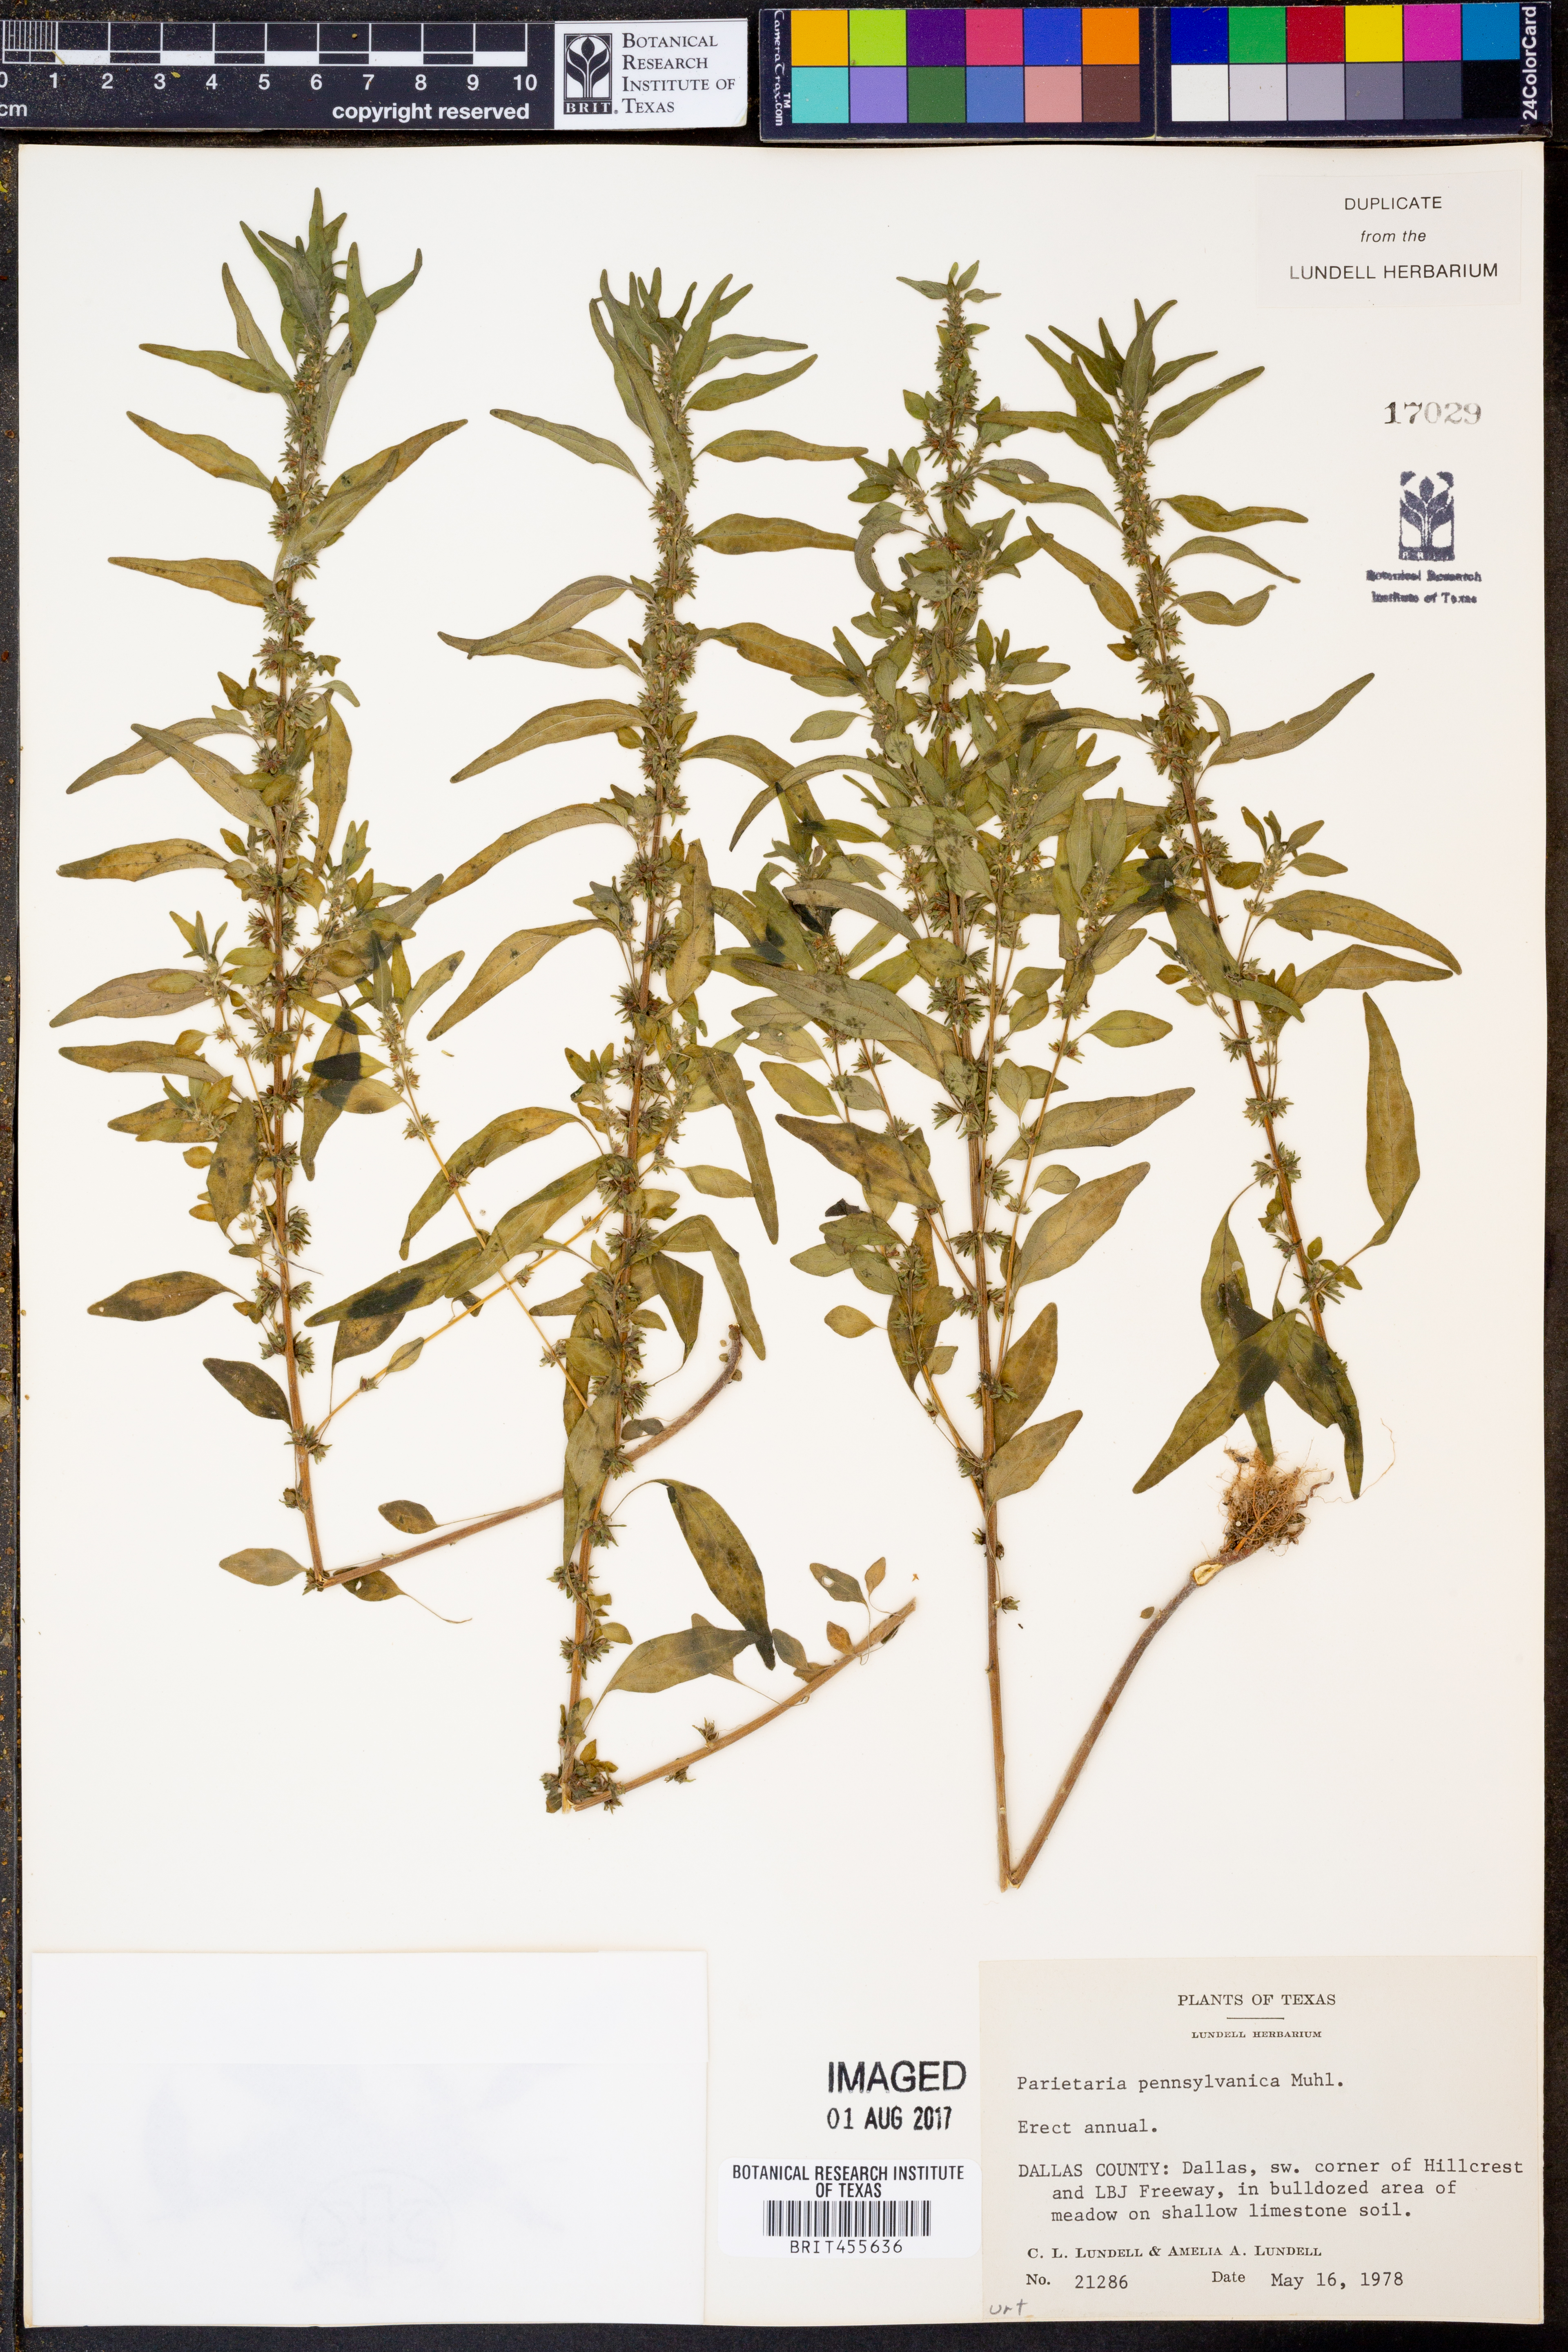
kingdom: Plantae
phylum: Tracheophyta
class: Magnoliopsida
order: Rosales
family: Urticaceae
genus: Parietaria
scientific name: Parietaria pensylvanica
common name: Pennsylvania pellitory
